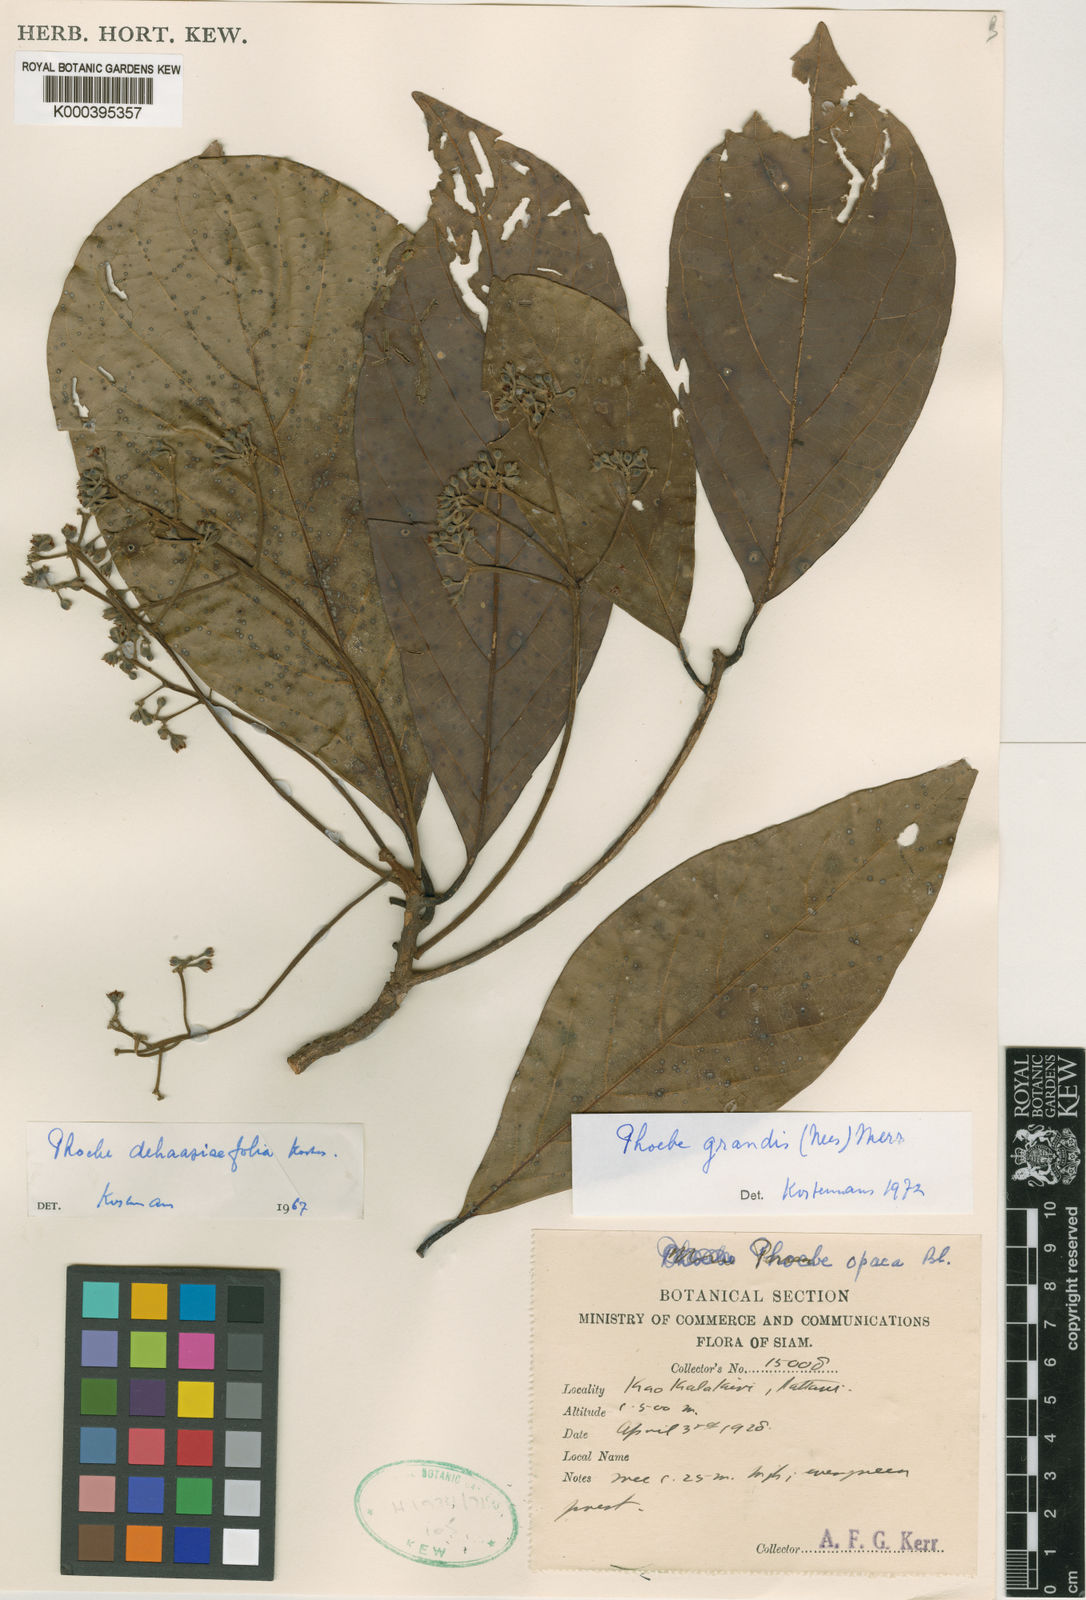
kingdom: Plantae
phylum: Tracheophyta
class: Magnoliopsida
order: Laurales
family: Lauraceae
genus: Phoebe
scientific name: Phoebe dehaasiifolia
